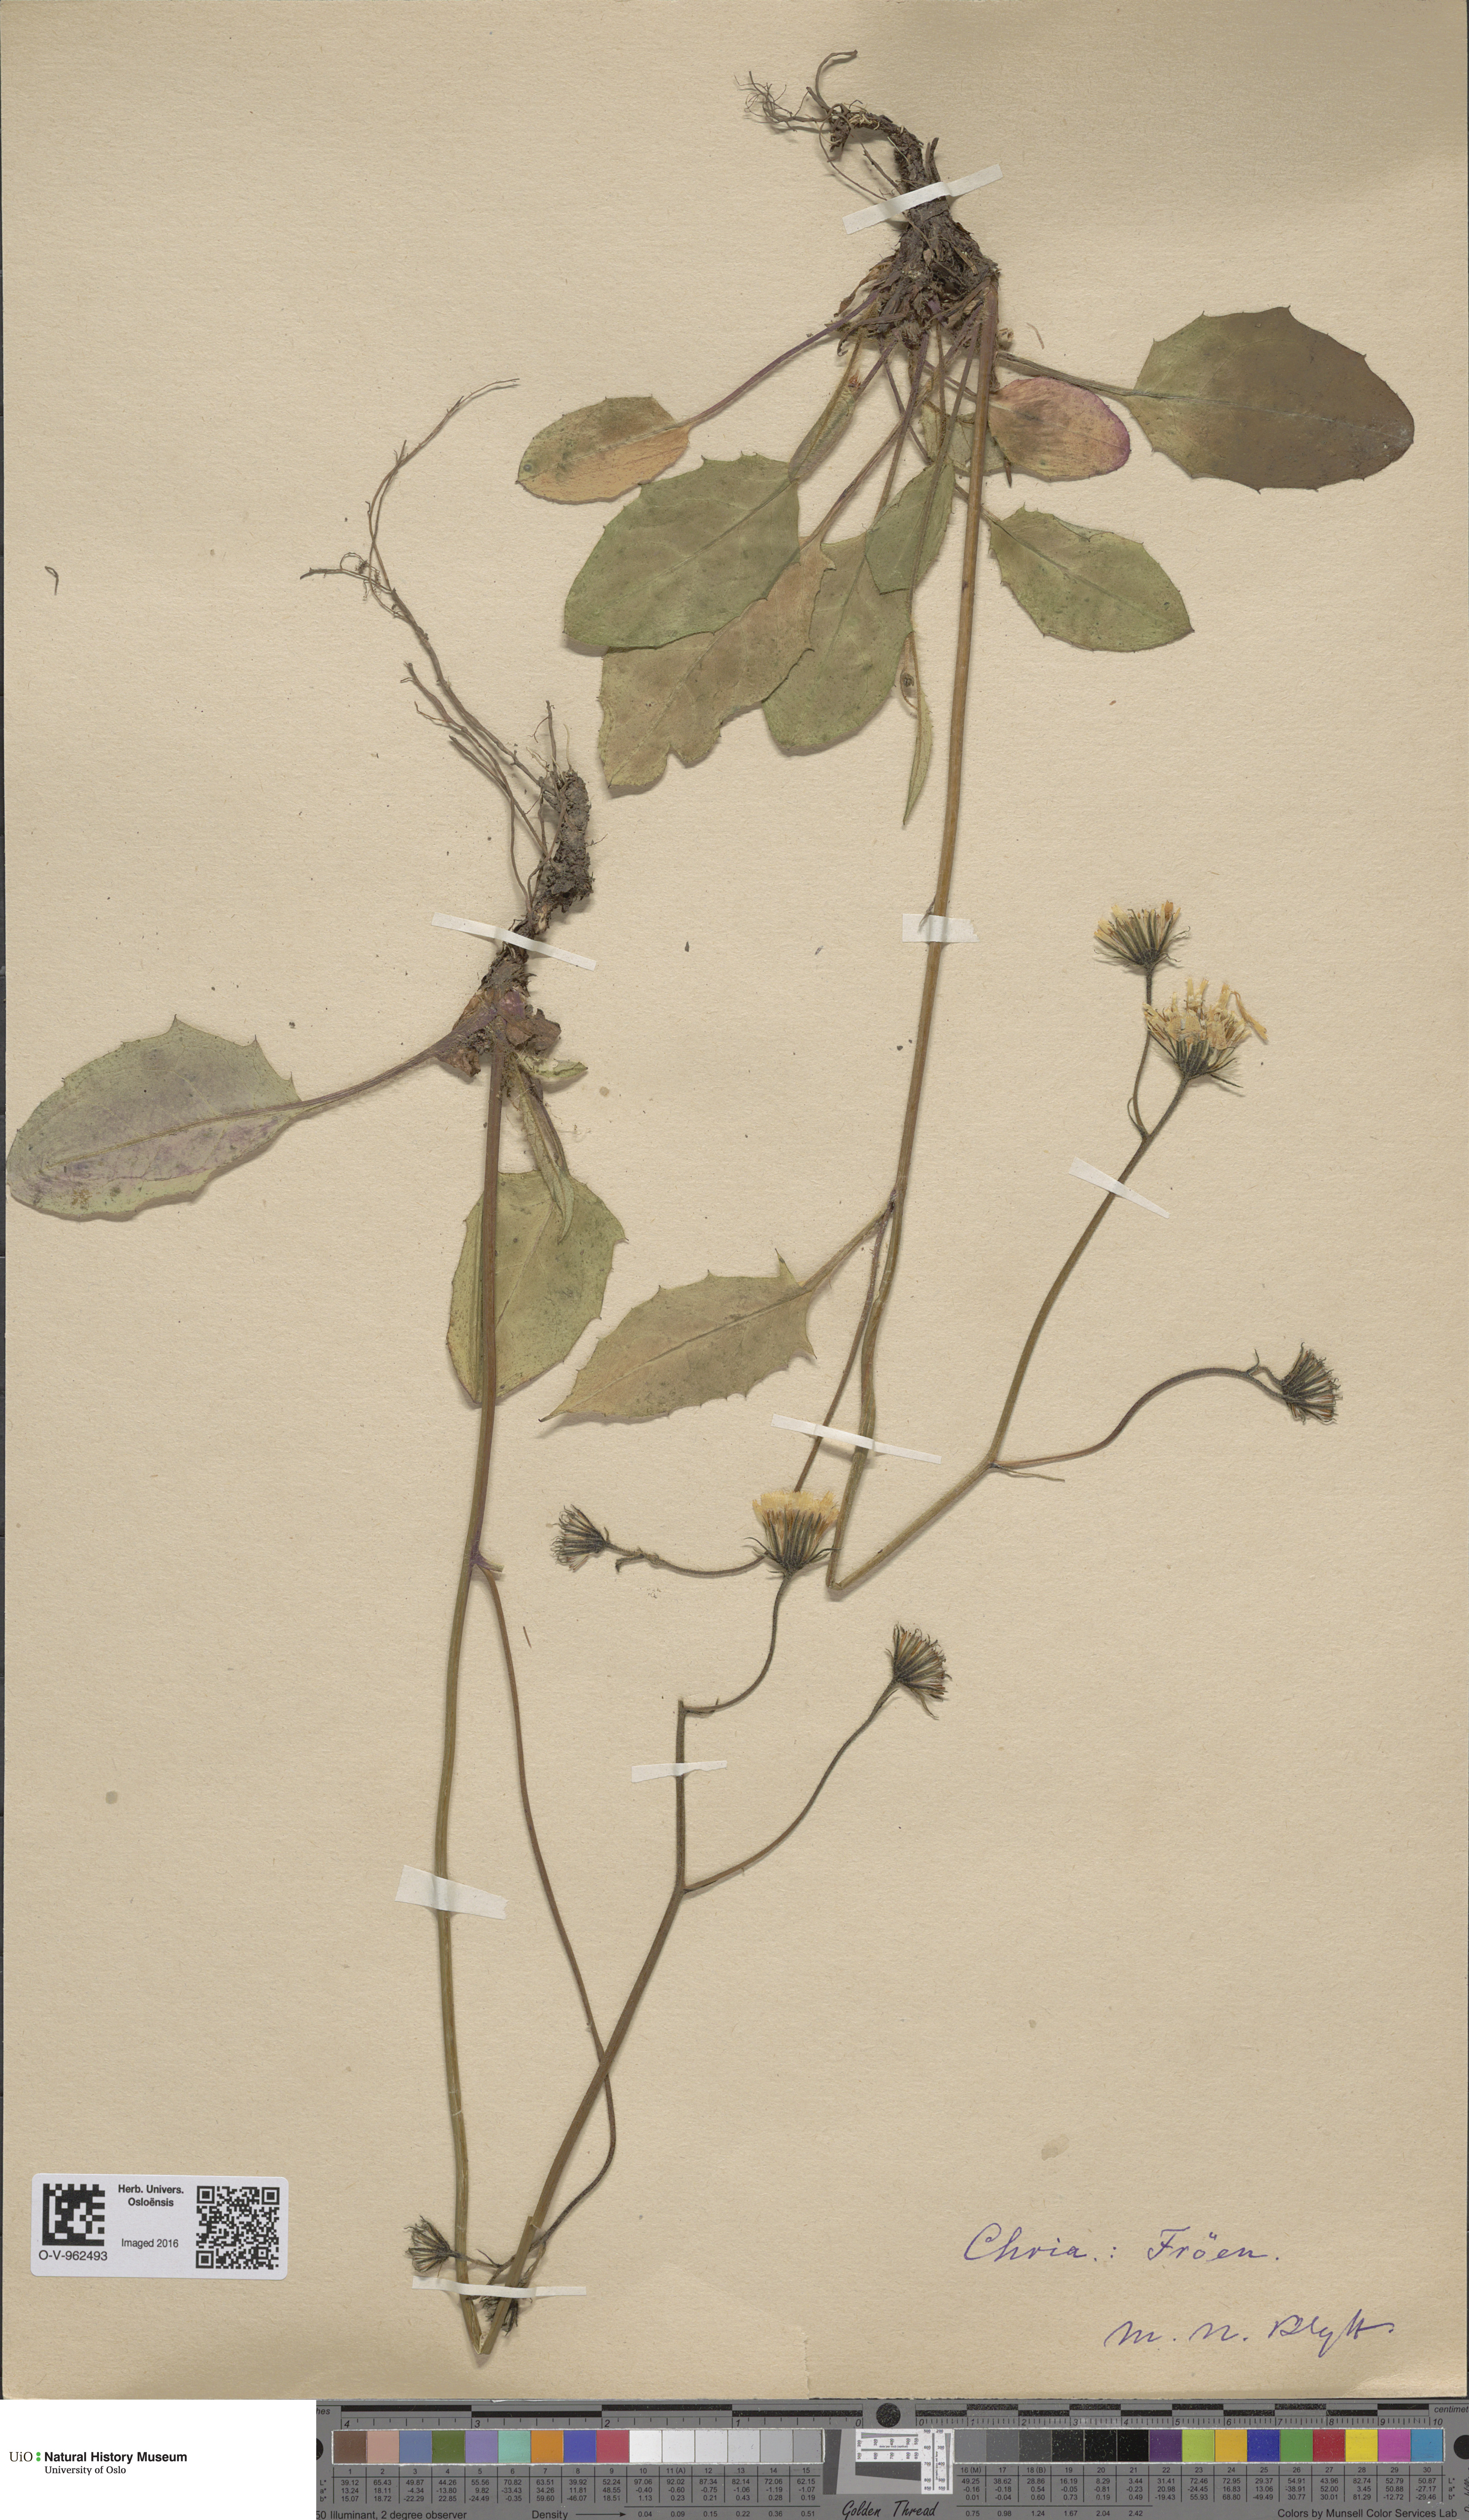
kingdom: Plantae
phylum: Tracheophyta
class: Magnoliopsida
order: Asterales
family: Asteraceae
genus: Hieracium
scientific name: Hieracium
